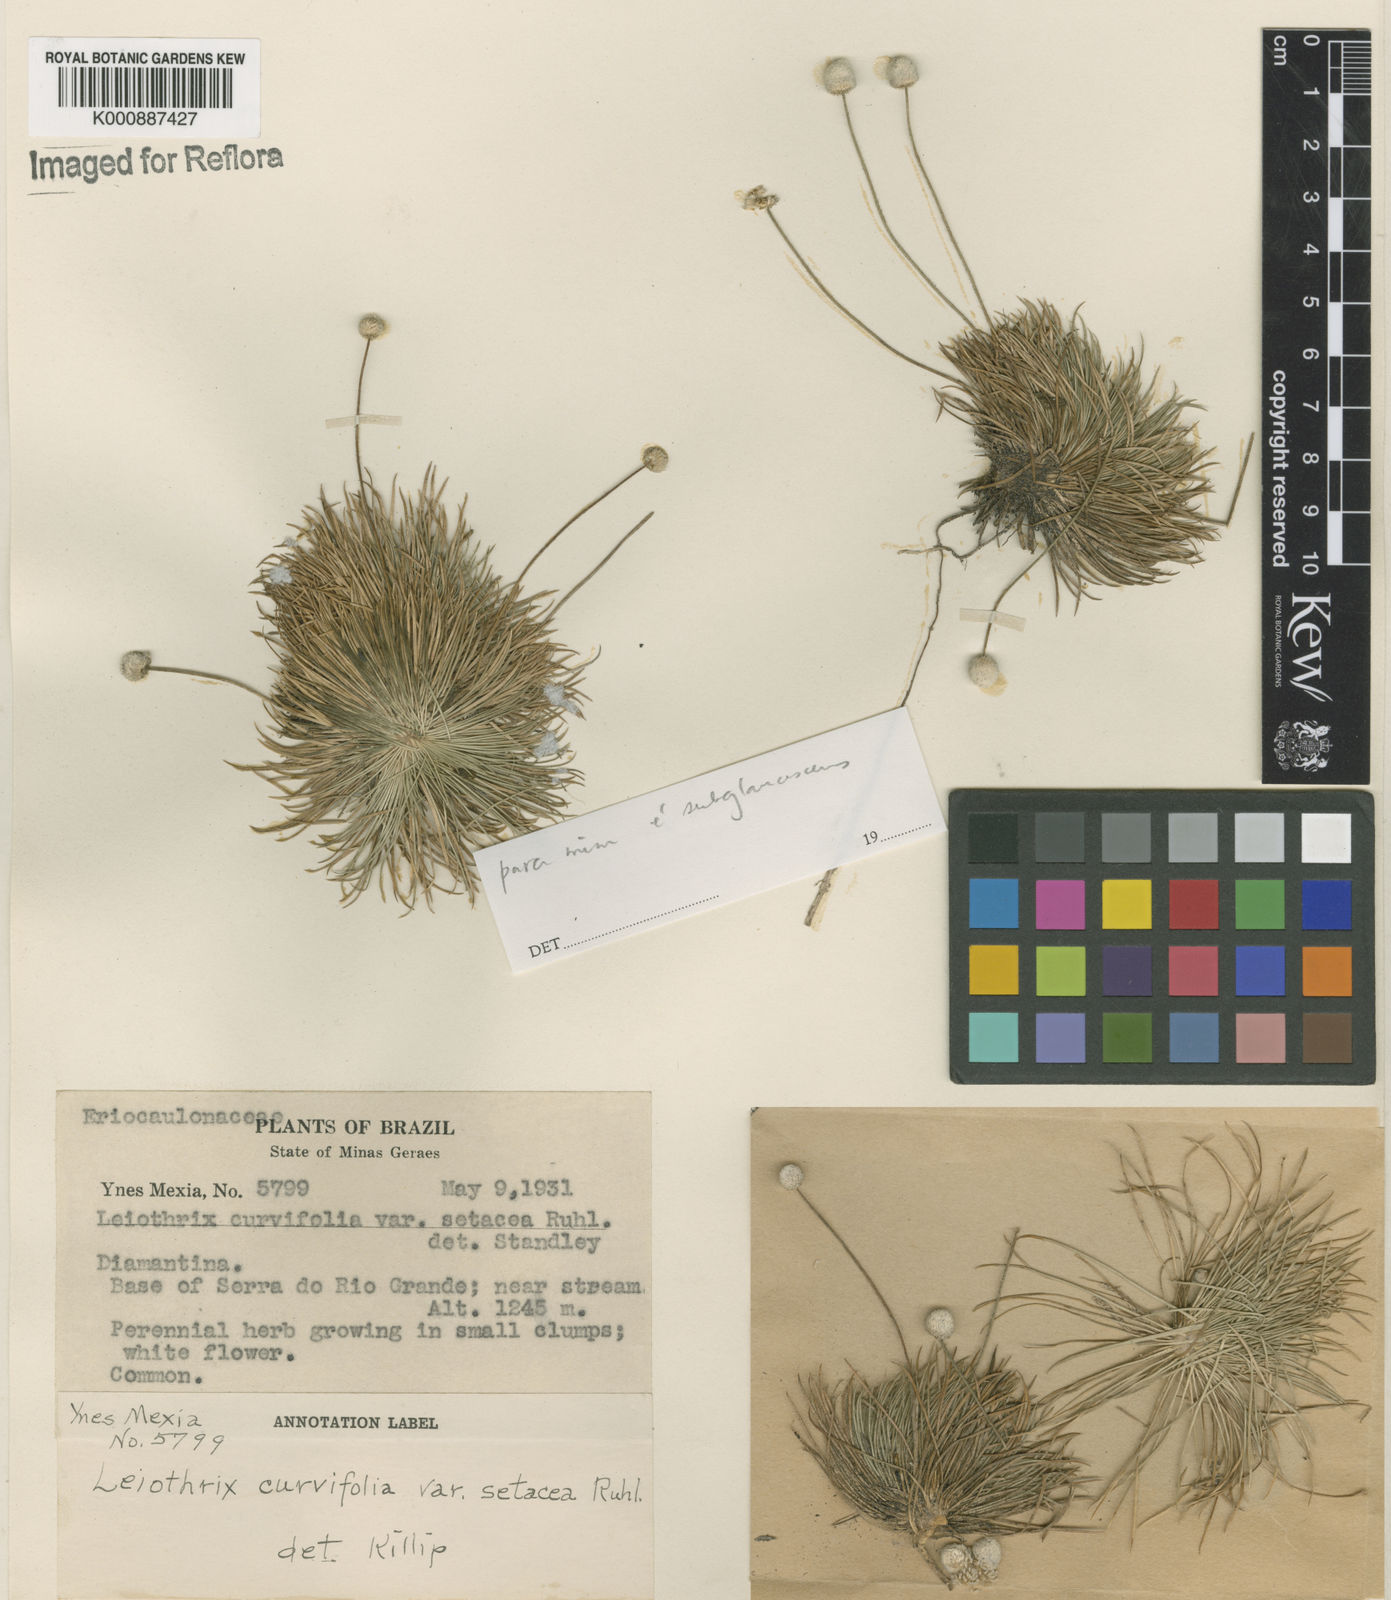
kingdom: Plantae
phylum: Tracheophyta
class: Liliopsida
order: Poales
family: Eriocaulaceae
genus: Leiothrix
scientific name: Leiothrix mucronata
